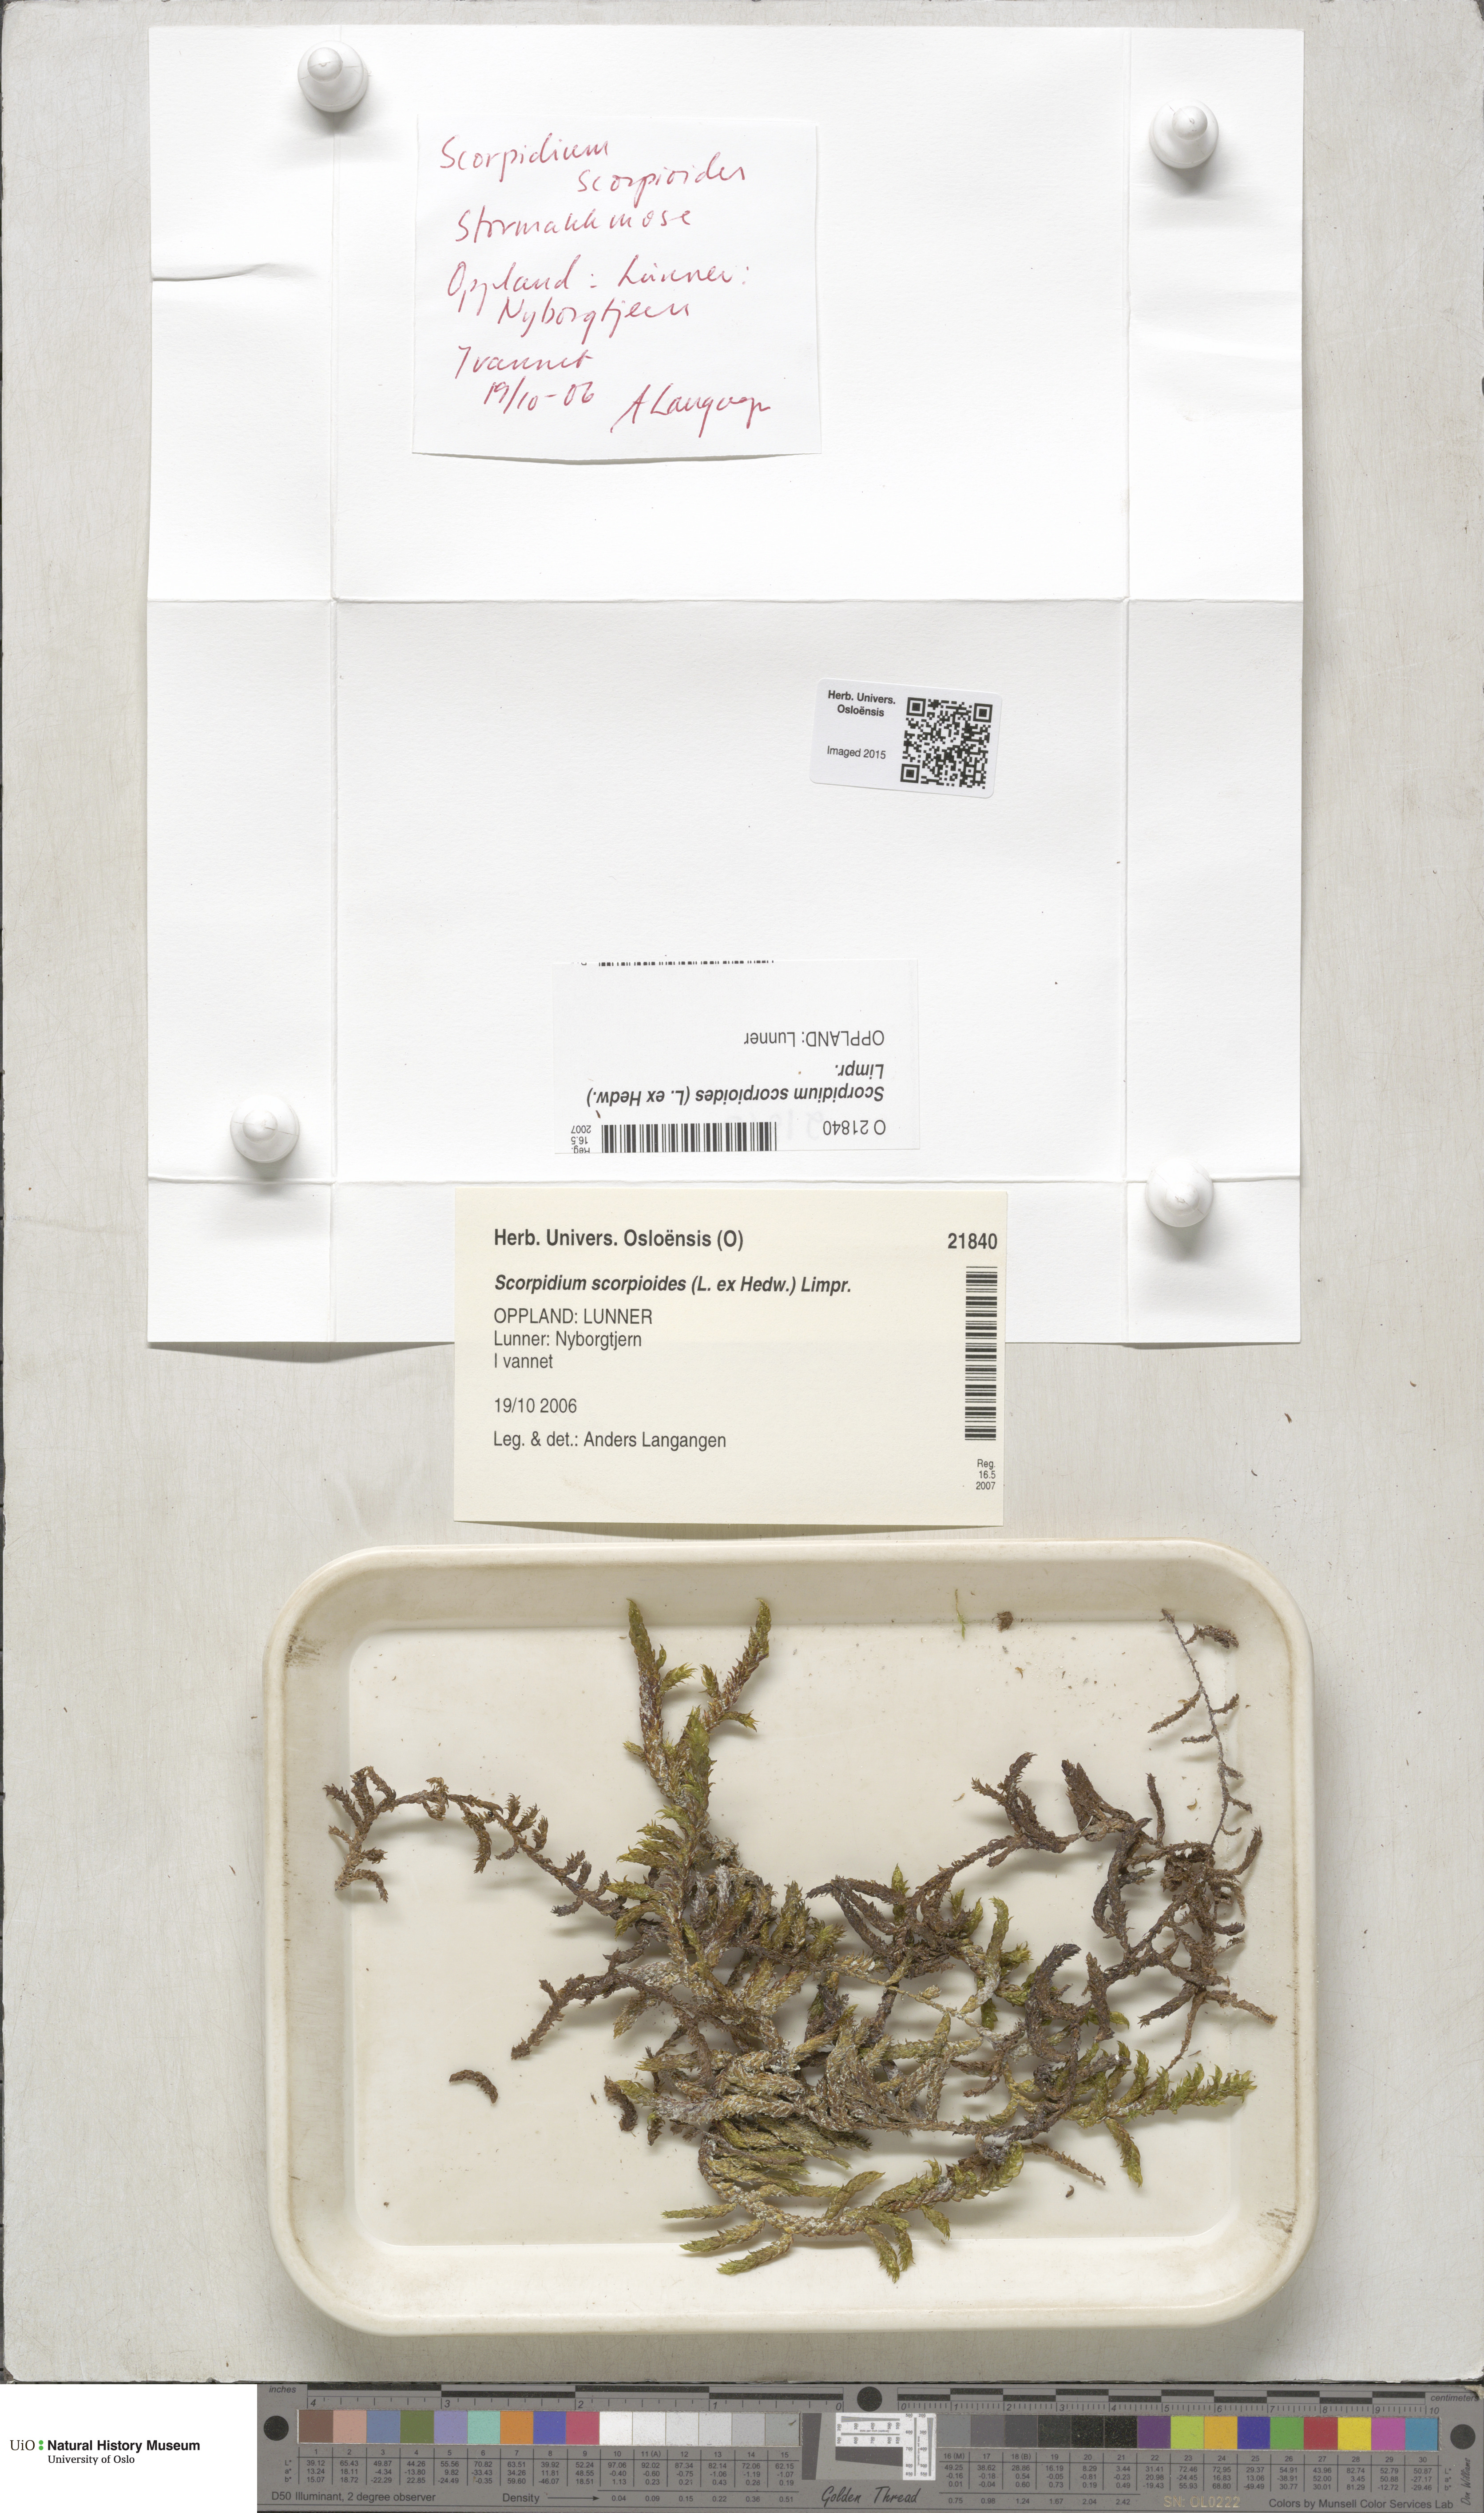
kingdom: Plantae
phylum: Bryophyta
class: Bryopsida
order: Hypnales
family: Scorpidiaceae
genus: Scorpidium
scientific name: Scorpidium scorpioides
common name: Hooked scorpion moss
